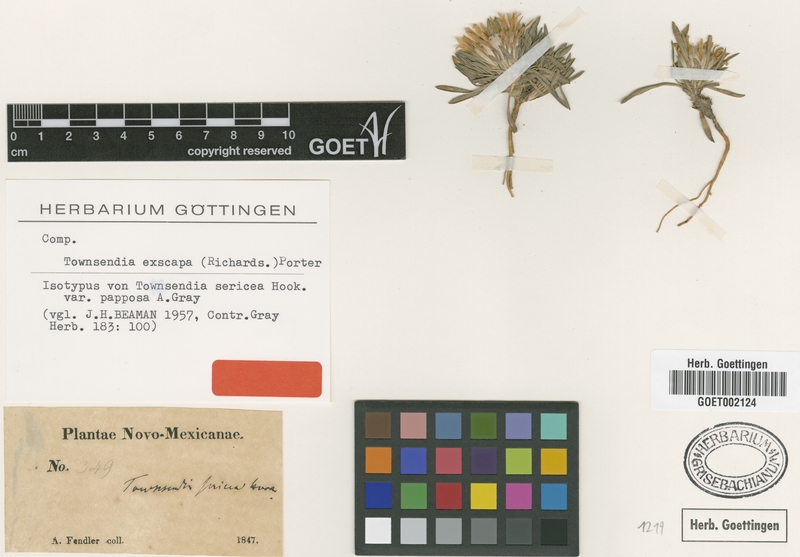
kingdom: Plantae
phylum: Tracheophyta
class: Magnoliopsida
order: Asterales
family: Asteraceae
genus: Townsendia
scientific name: Townsendia exscapa
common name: Dwarf townsendia
